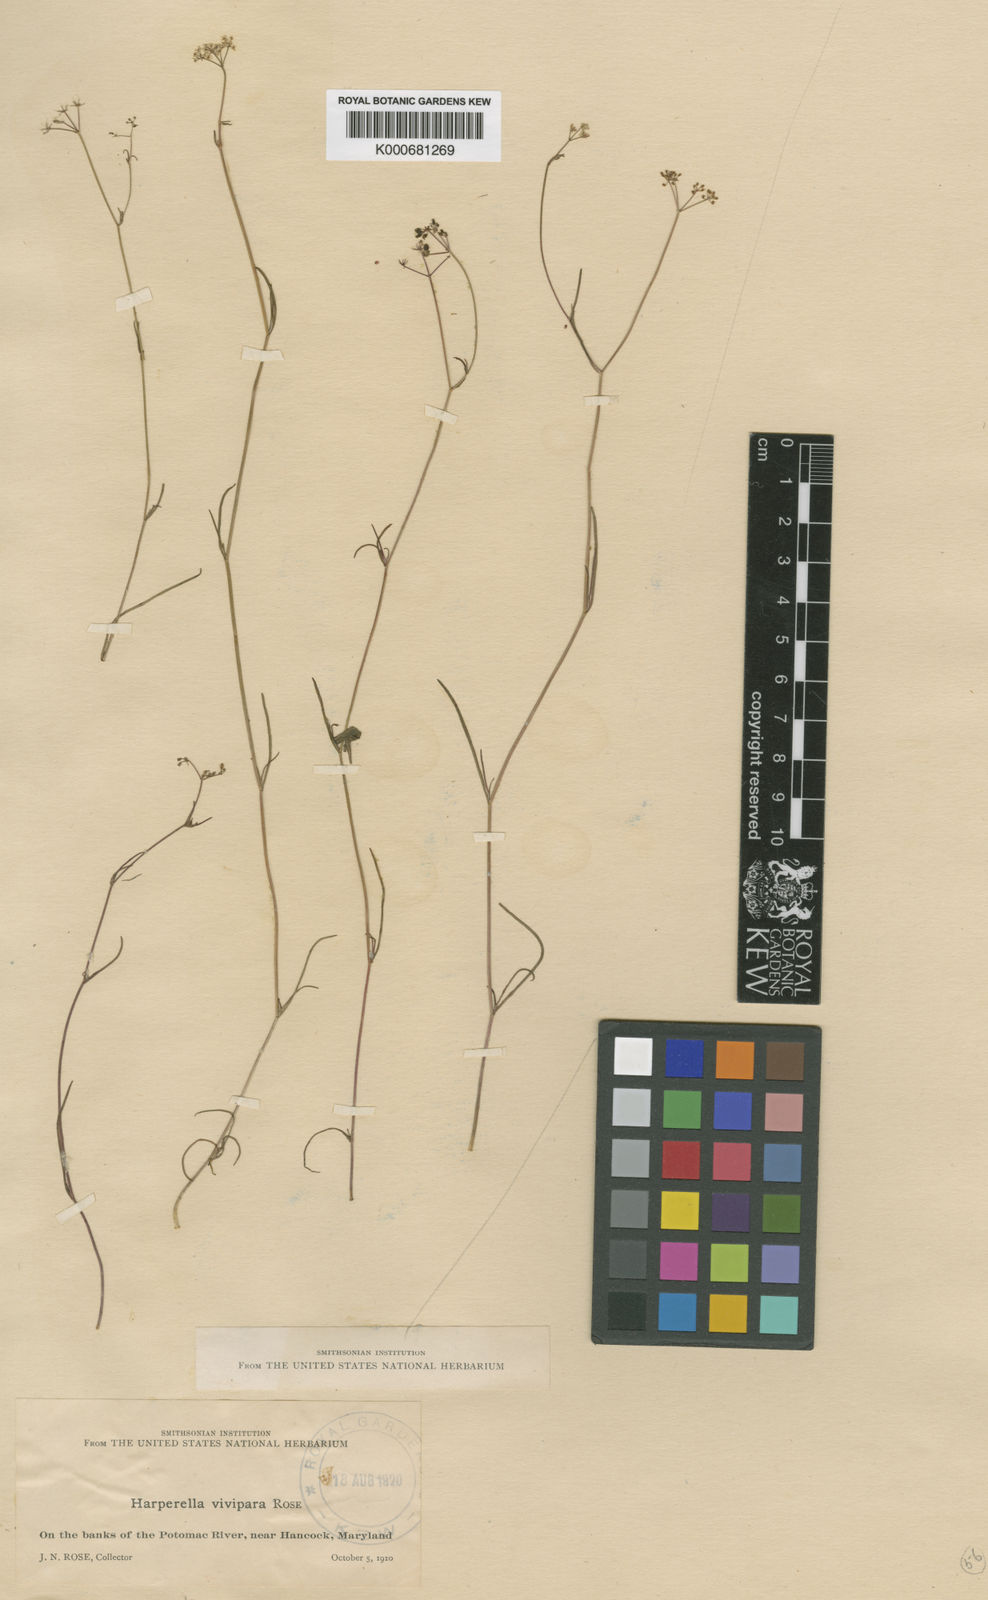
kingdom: Plantae
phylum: Tracheophyta
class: Magnoliopsida
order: Apiales
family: Apiaceae
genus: Harperella
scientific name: Harperella nodosa
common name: Harperella
